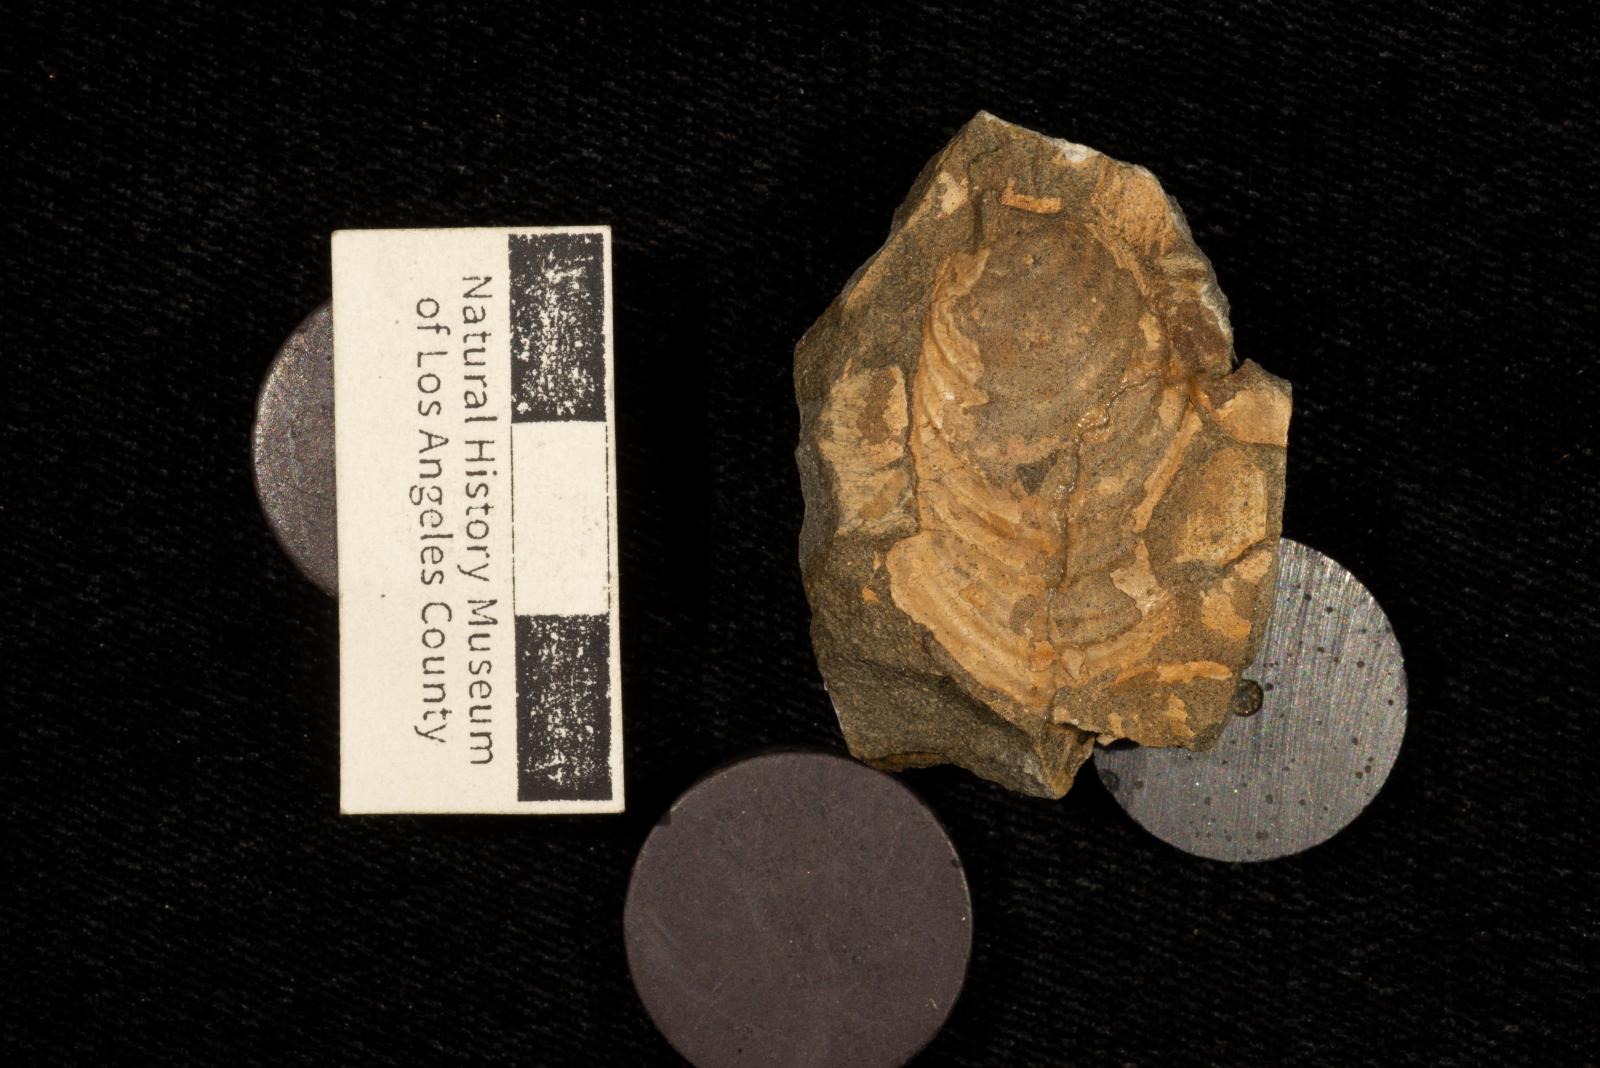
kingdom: Animalia
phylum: Mollusca
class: Bivalvia
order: Myalinida
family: Inoceramidae
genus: Inoceramus
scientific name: Inoceramus
